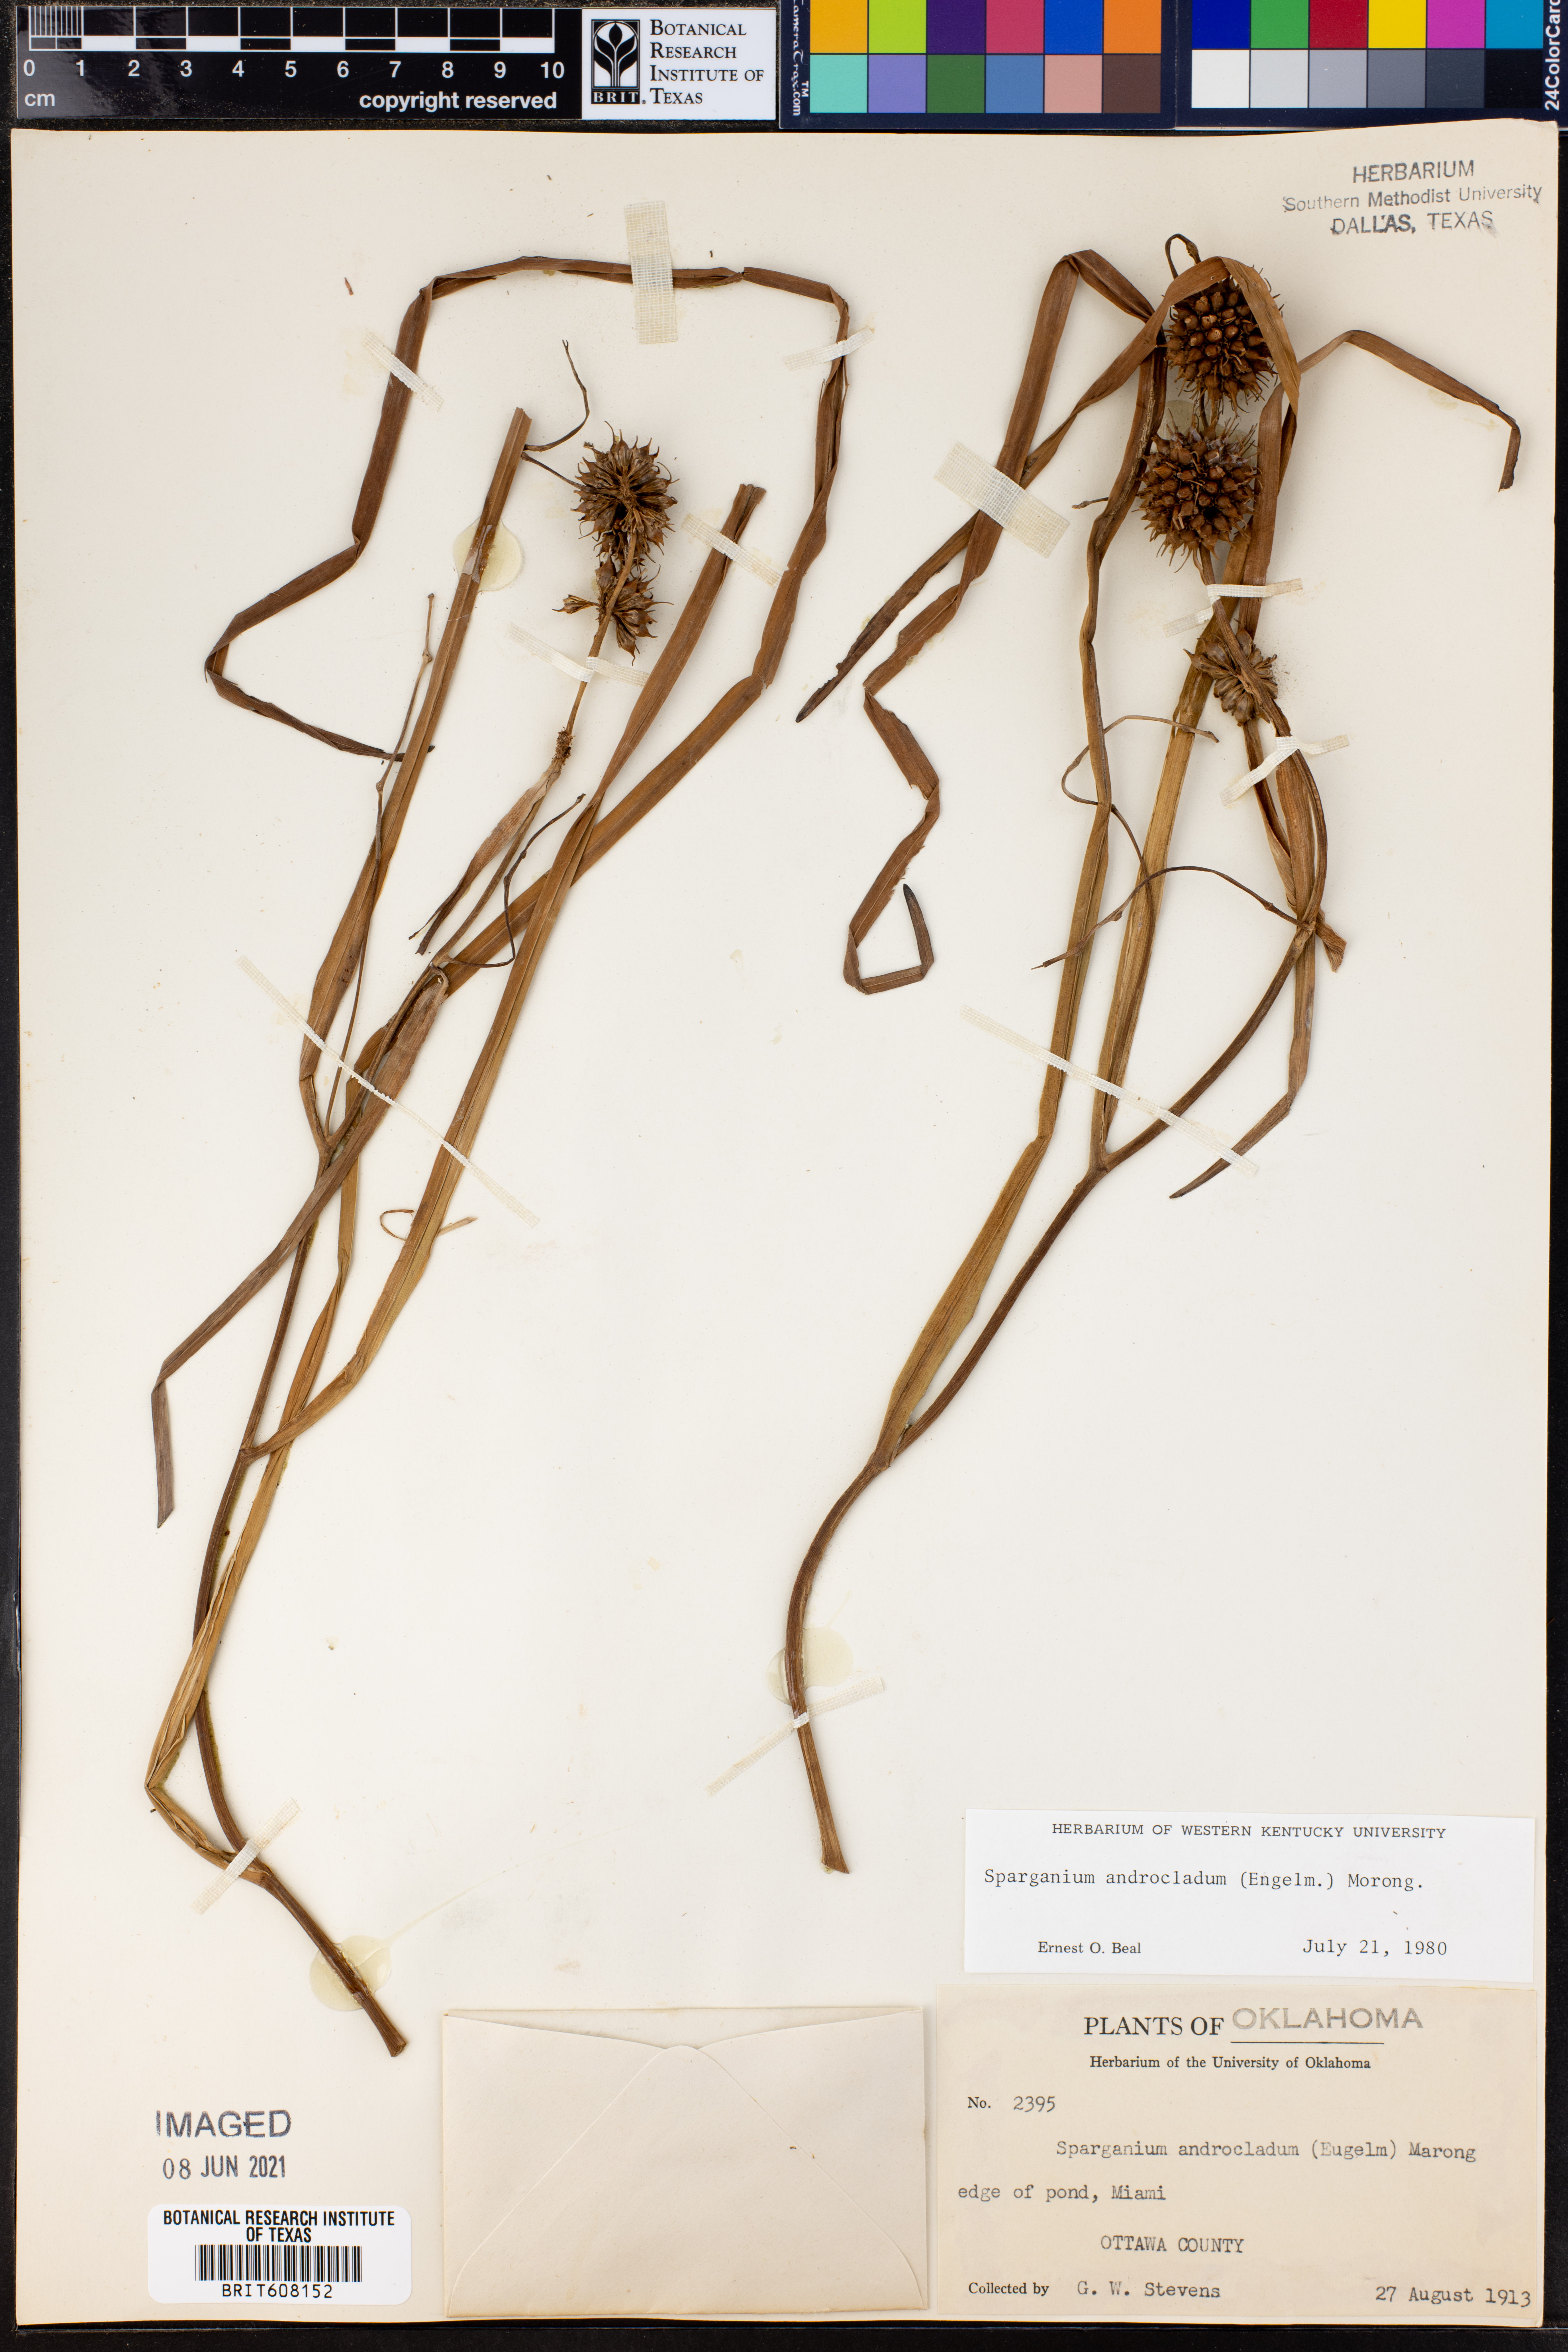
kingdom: Plantae
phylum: Tracheophyta
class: Liliopsida
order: Poales
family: Typhaceae
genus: Sparganium
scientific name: Sparganium androcladum
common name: Branched burreed
